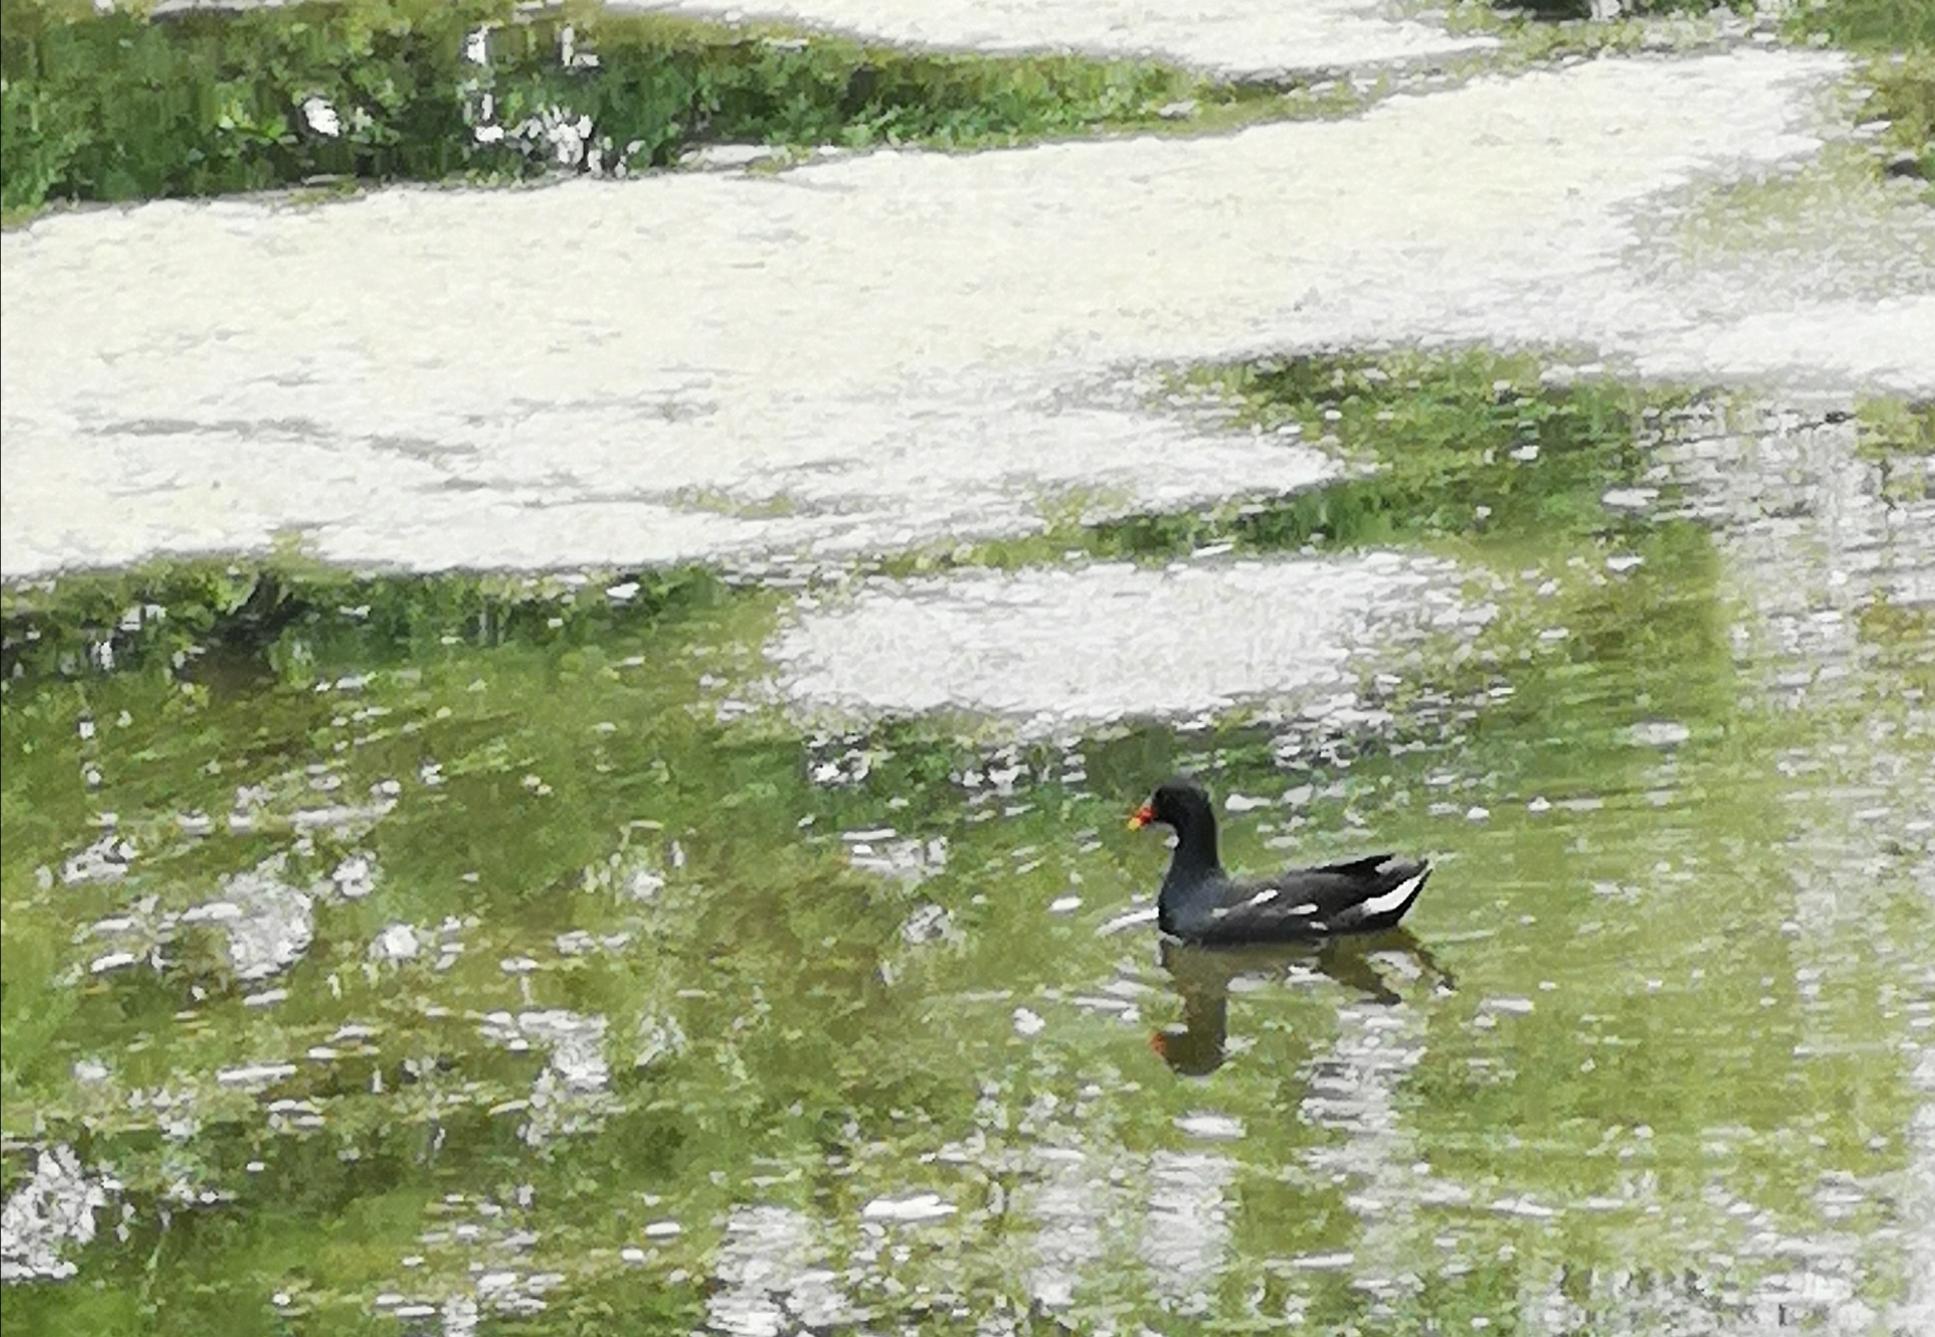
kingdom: Animalia
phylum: Chordata
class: Aves
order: Gruiformes
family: Rallidae
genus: Gallinula
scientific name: Gallinula chloropus
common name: Grønbenet rørhøne
